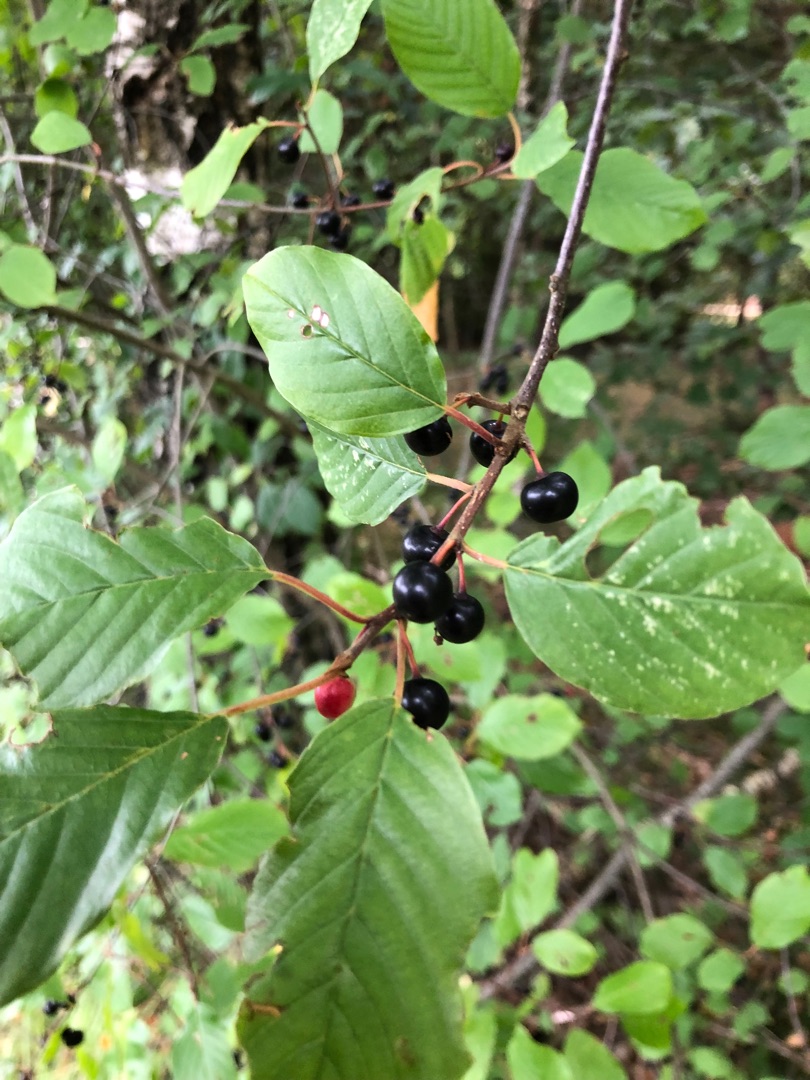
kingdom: Plantae
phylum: Tracheophyta
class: Magnoliopsida
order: Rosales
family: Rhamnaceae
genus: Frangula
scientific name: Frangula alnus
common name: Tørst
